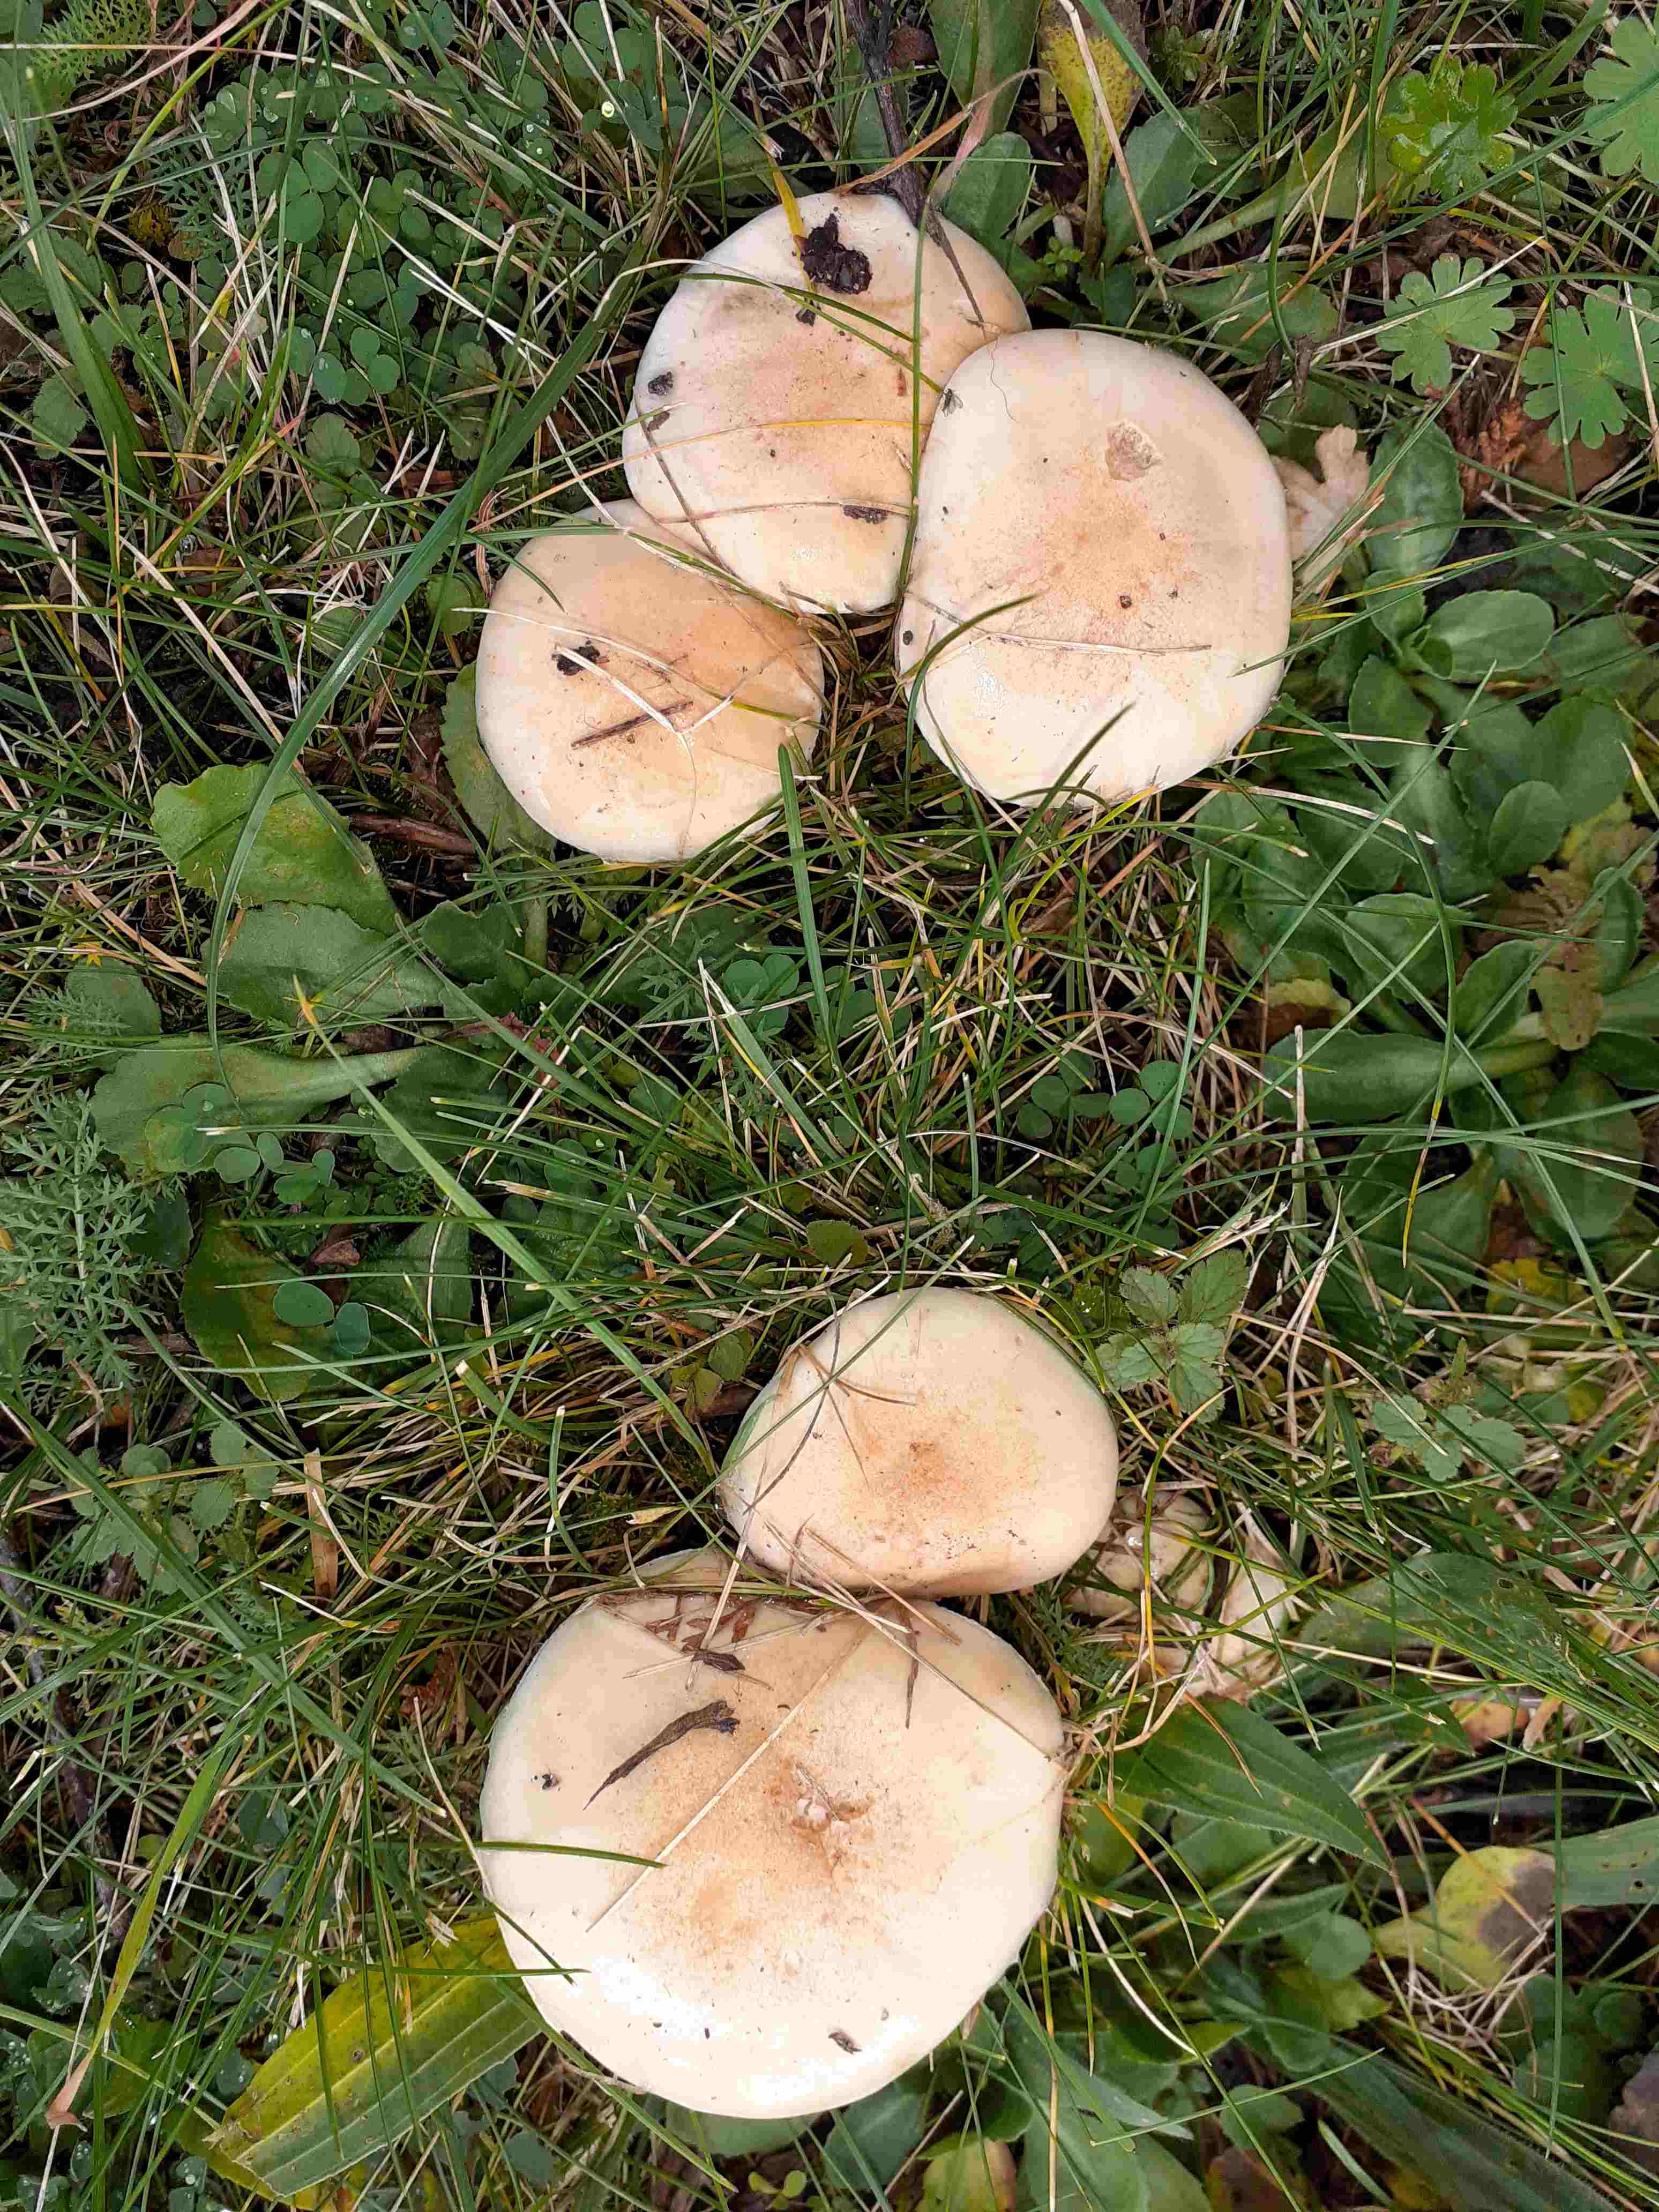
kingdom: Fungi
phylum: Basidiomycota
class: Agaricomycetes
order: Agaricales
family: Hymenogastraceae
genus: Hebeloma
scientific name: Hebeloma crustuliniforme
